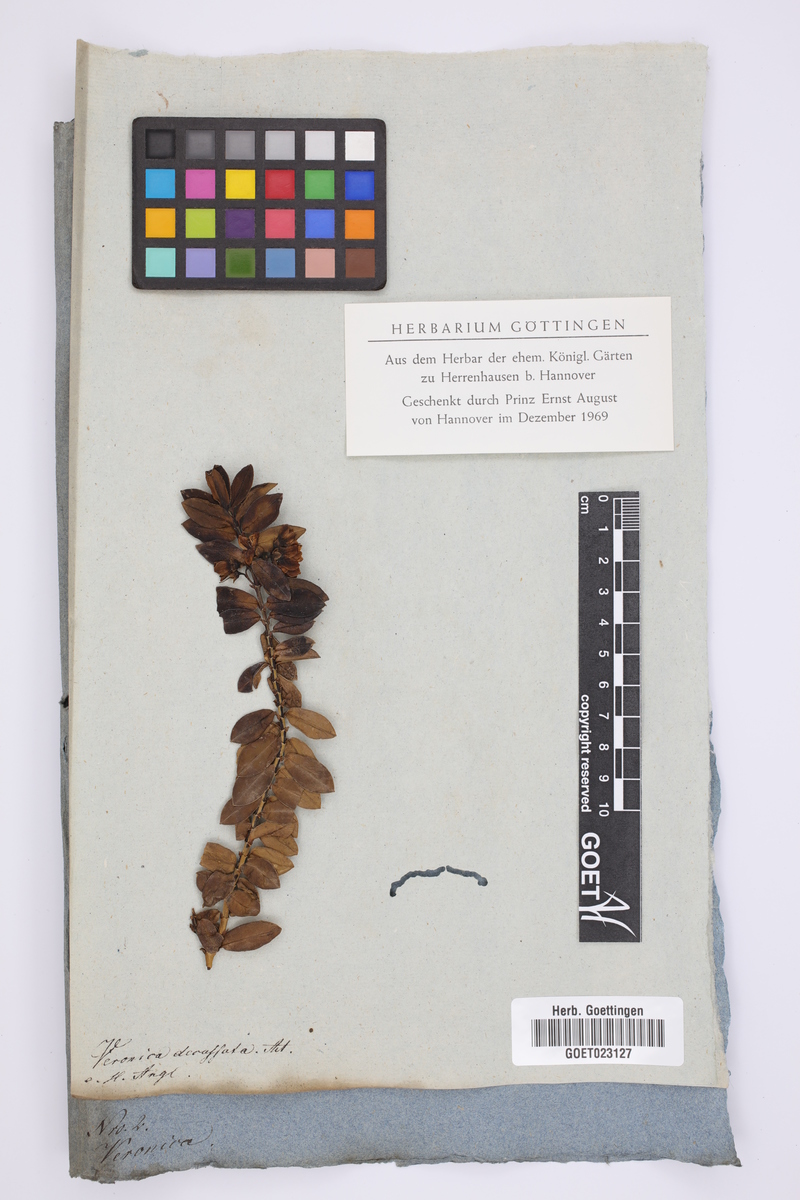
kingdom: Plantae
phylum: Tracheophyta
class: Magnoliopsida
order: Lamiales
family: Plantaginaceae
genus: Veronica
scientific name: Veronica elliptica
